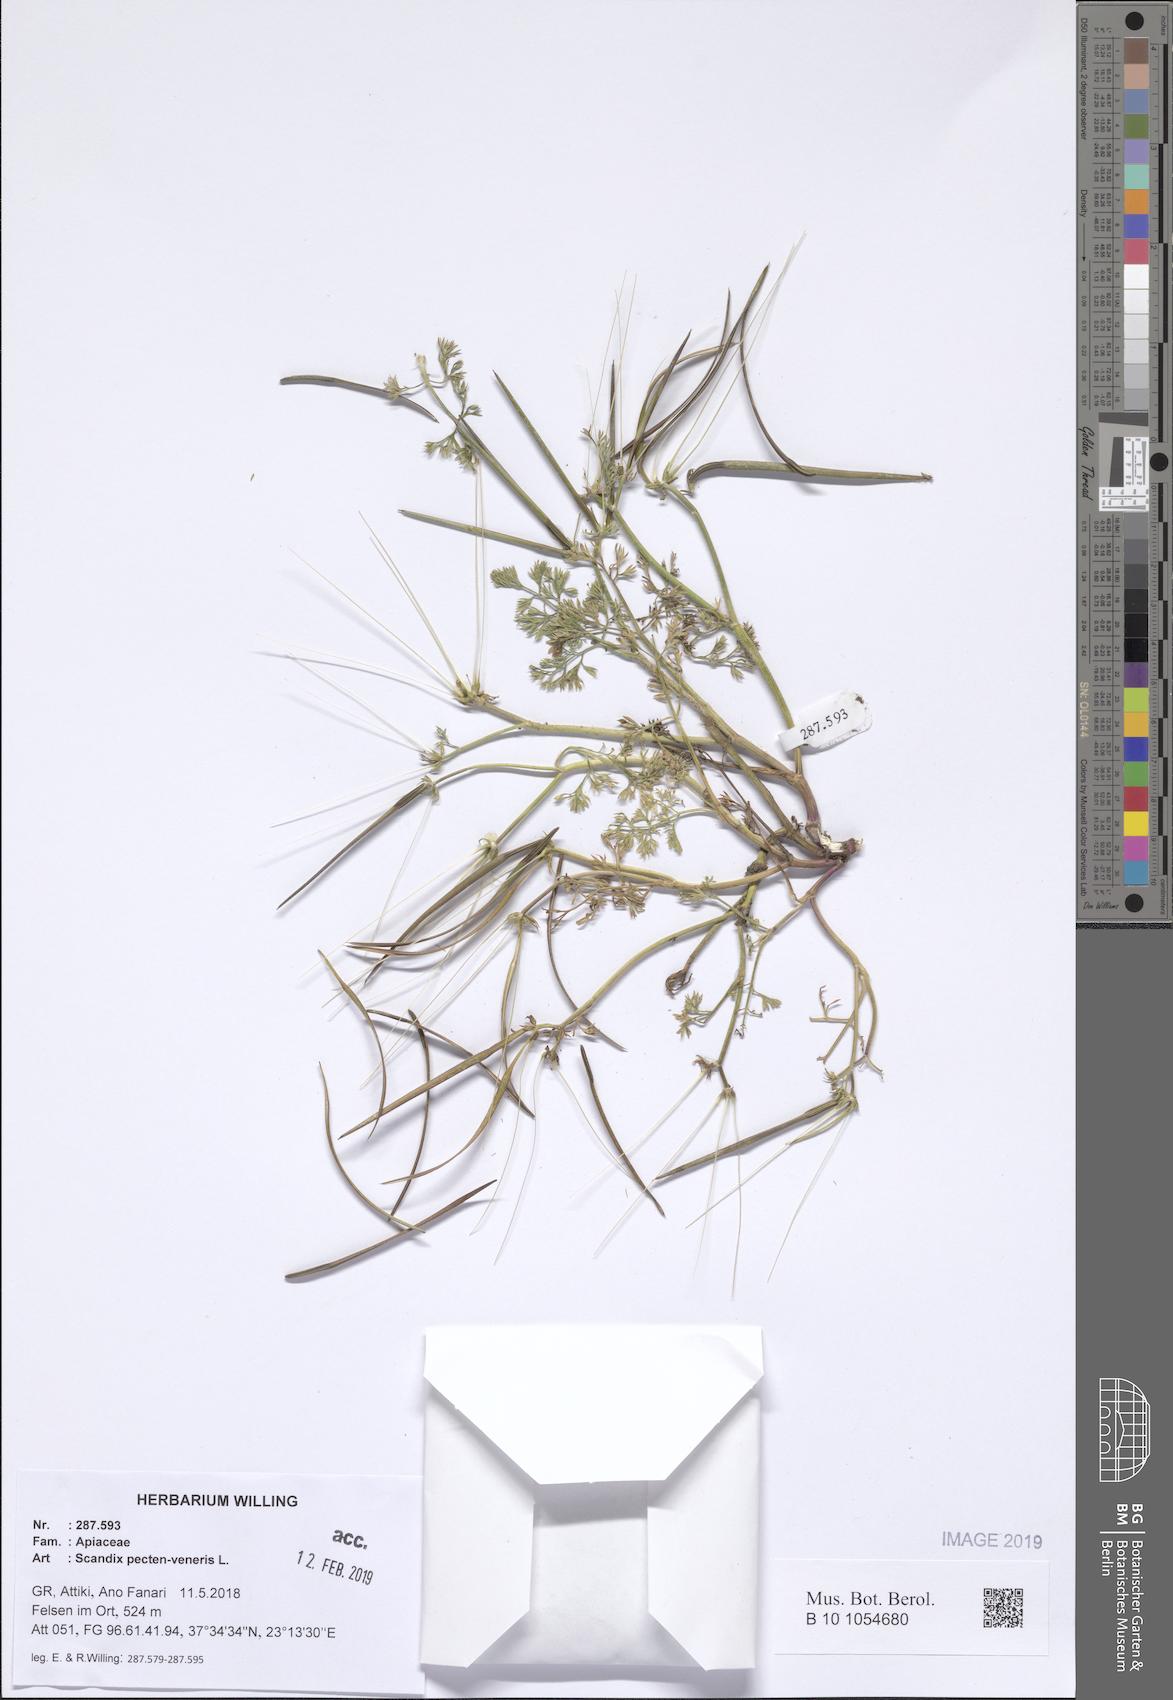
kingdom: Plantae
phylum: Tracheophyta
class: Magnoliopsida
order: Apiales
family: Apiaceae
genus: Scandix
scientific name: Scandix pecten-veneris
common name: Shepherd's-needle
